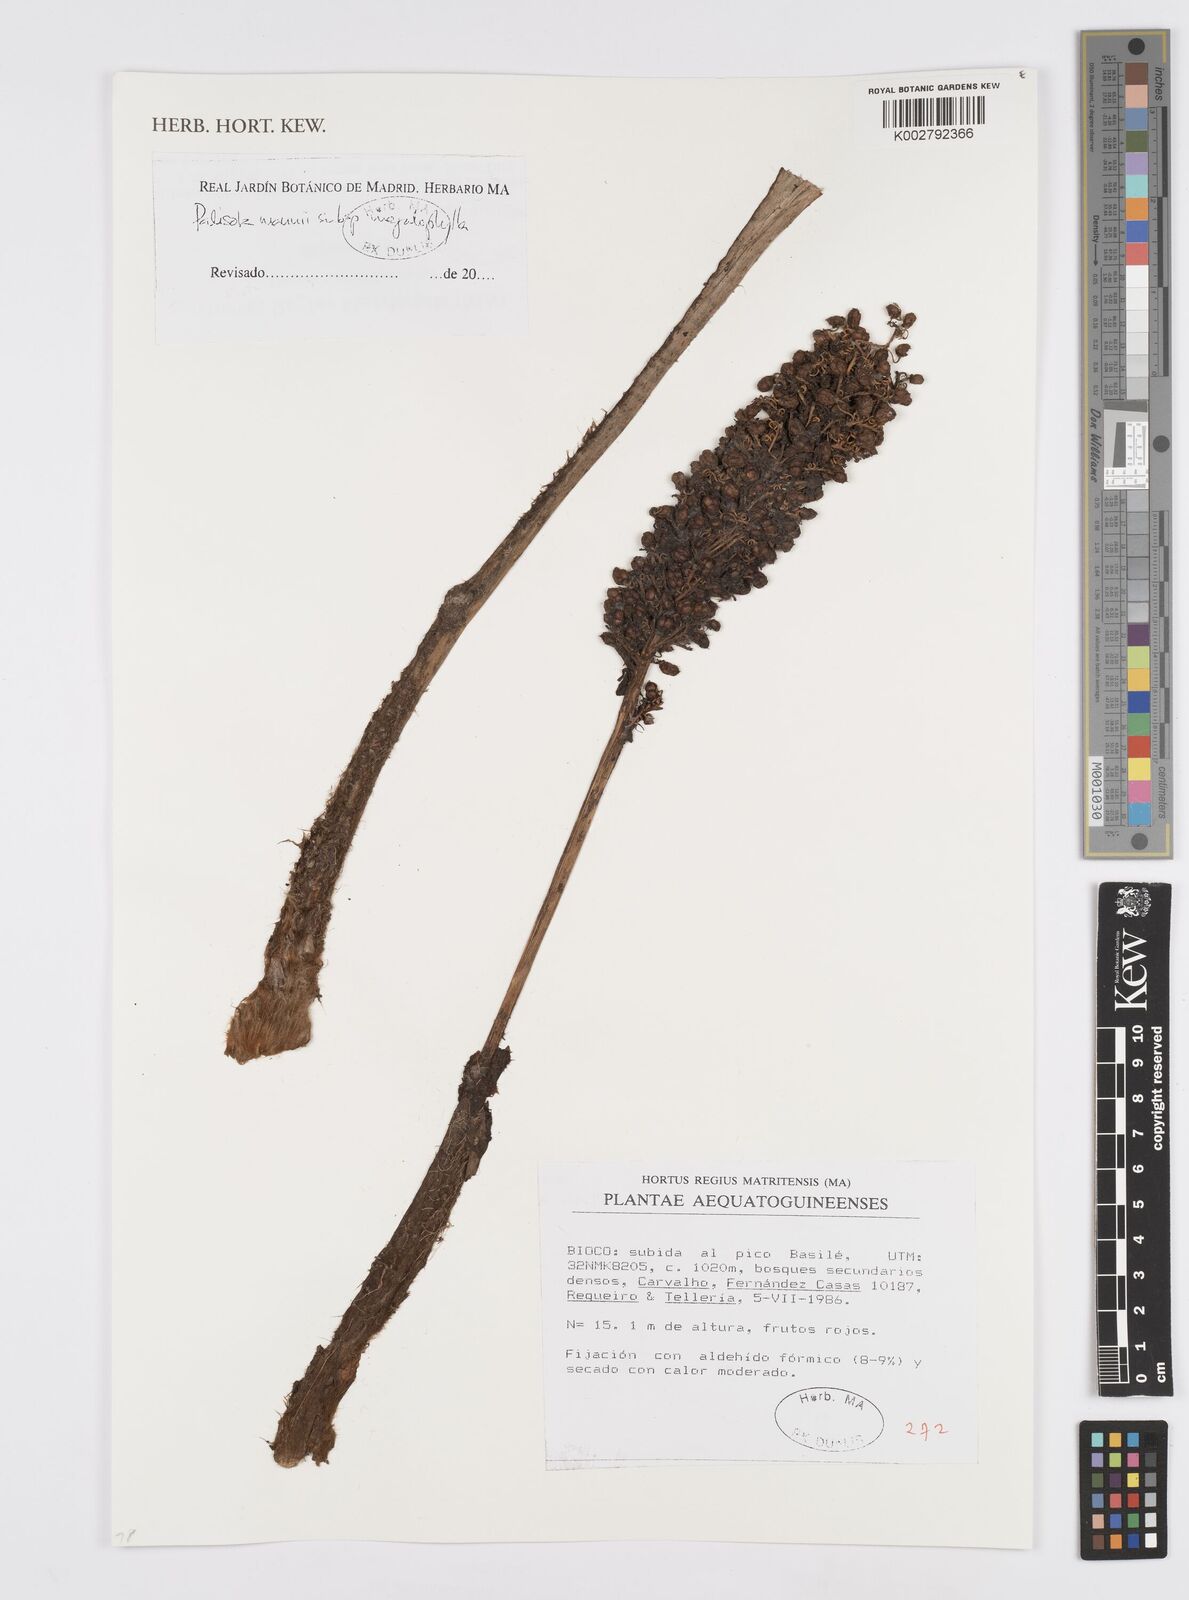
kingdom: Plantae
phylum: Tracheophyta
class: Liliopsida
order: Commelinales
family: Commelinaceae
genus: Palisota
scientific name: Palisota mannii
